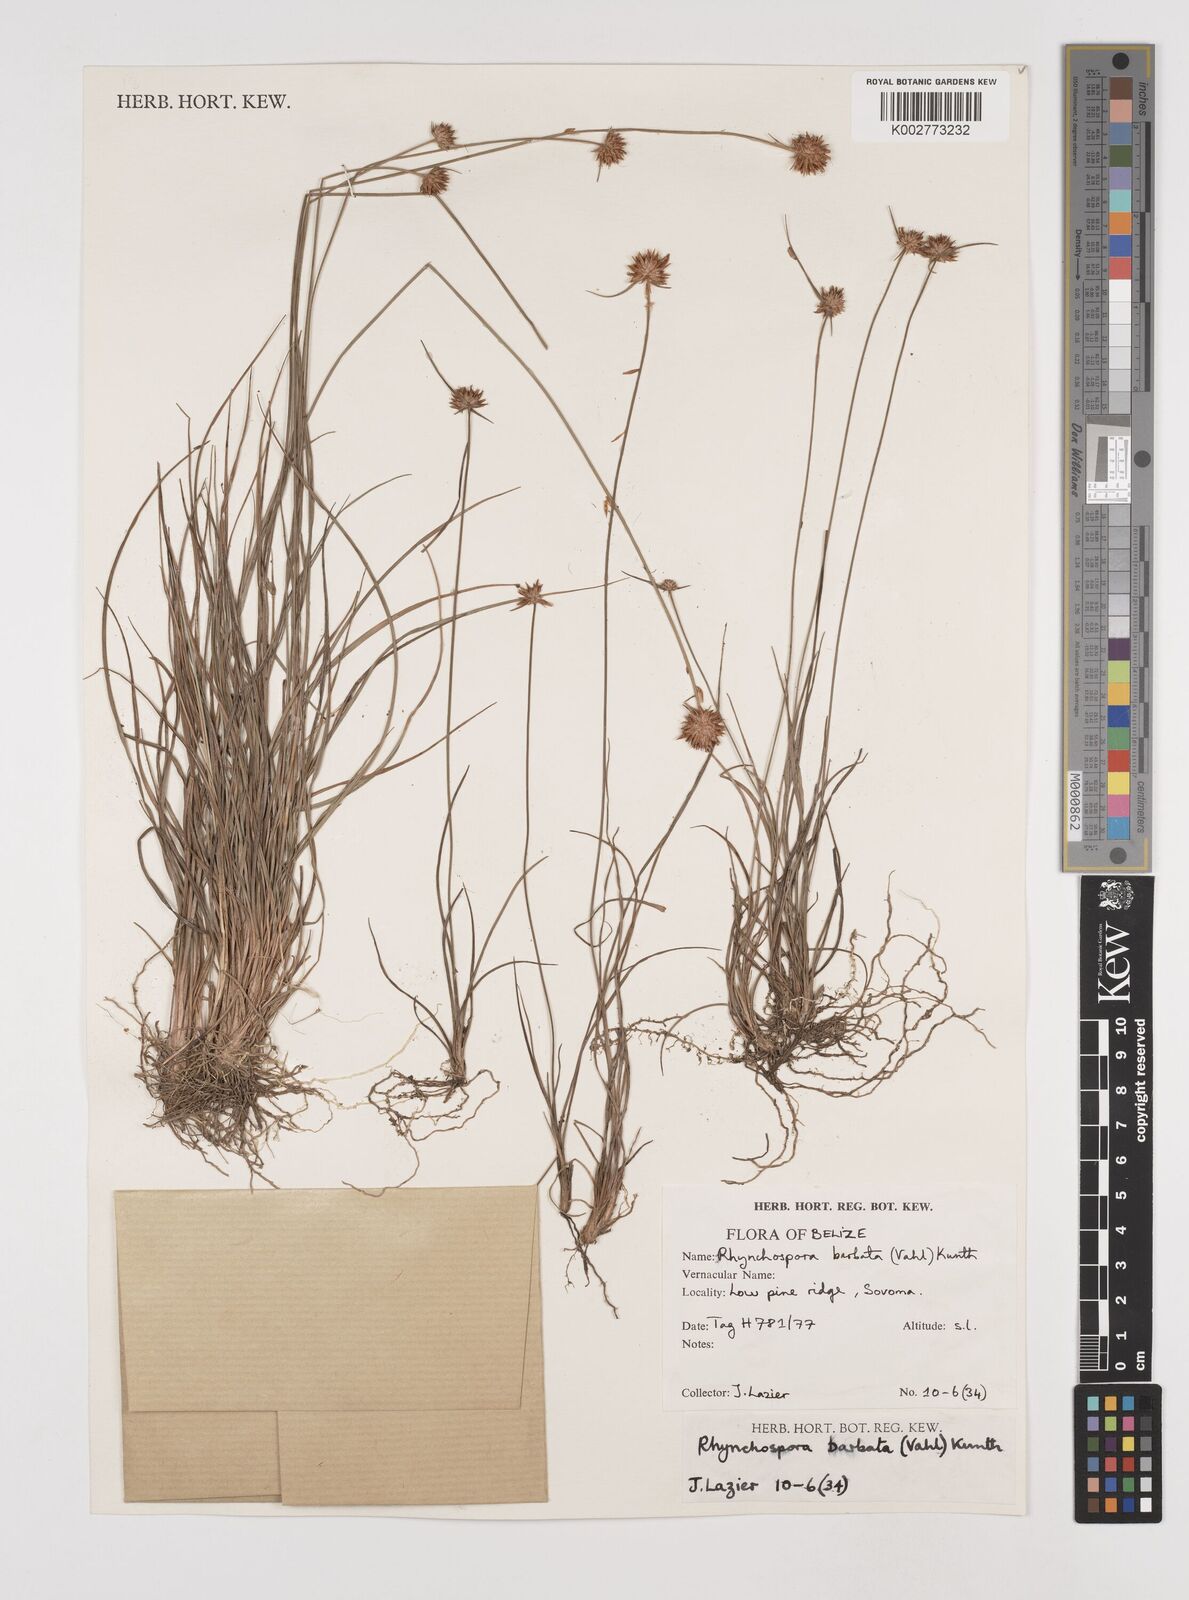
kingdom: Plantae
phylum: Tracheophyta
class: Liliopsida
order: Poales
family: Cyperaceae
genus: Rhynchospora
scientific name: Rhynchospora barbata
